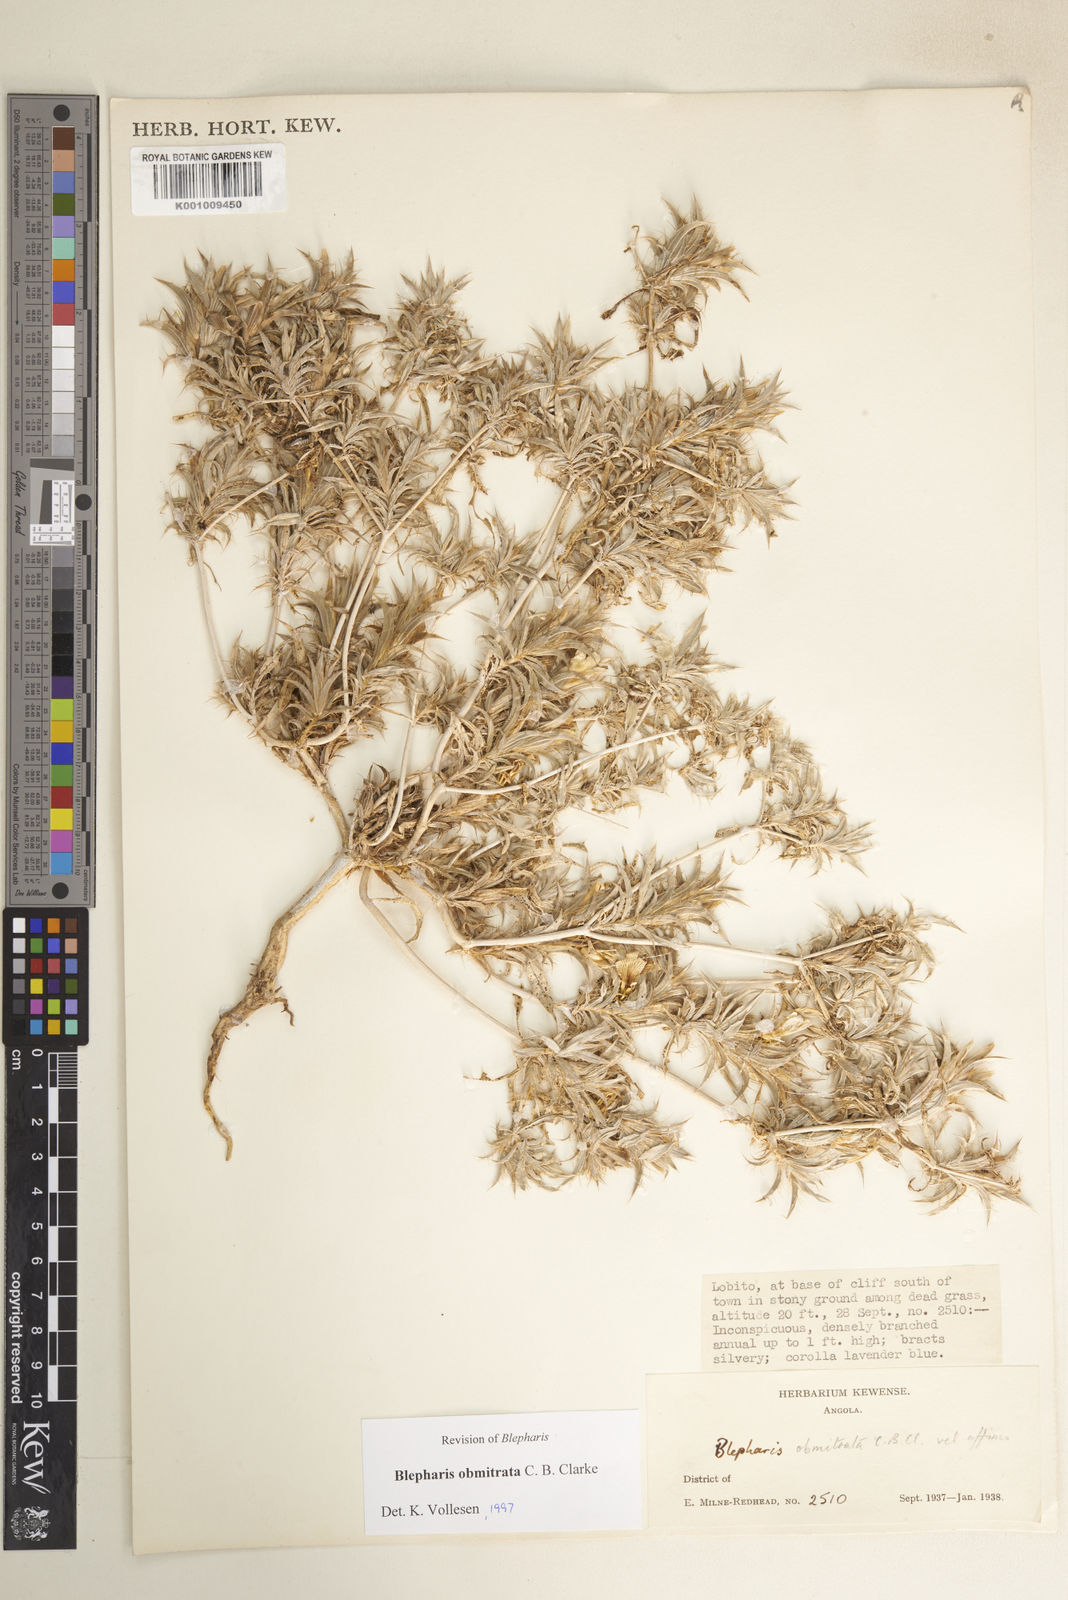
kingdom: Plantae
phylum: Tracheophyta
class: Magnoliopsida
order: Lamiales
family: Acanthaceae
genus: Blepharis
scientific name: Blepharis obmitrata
